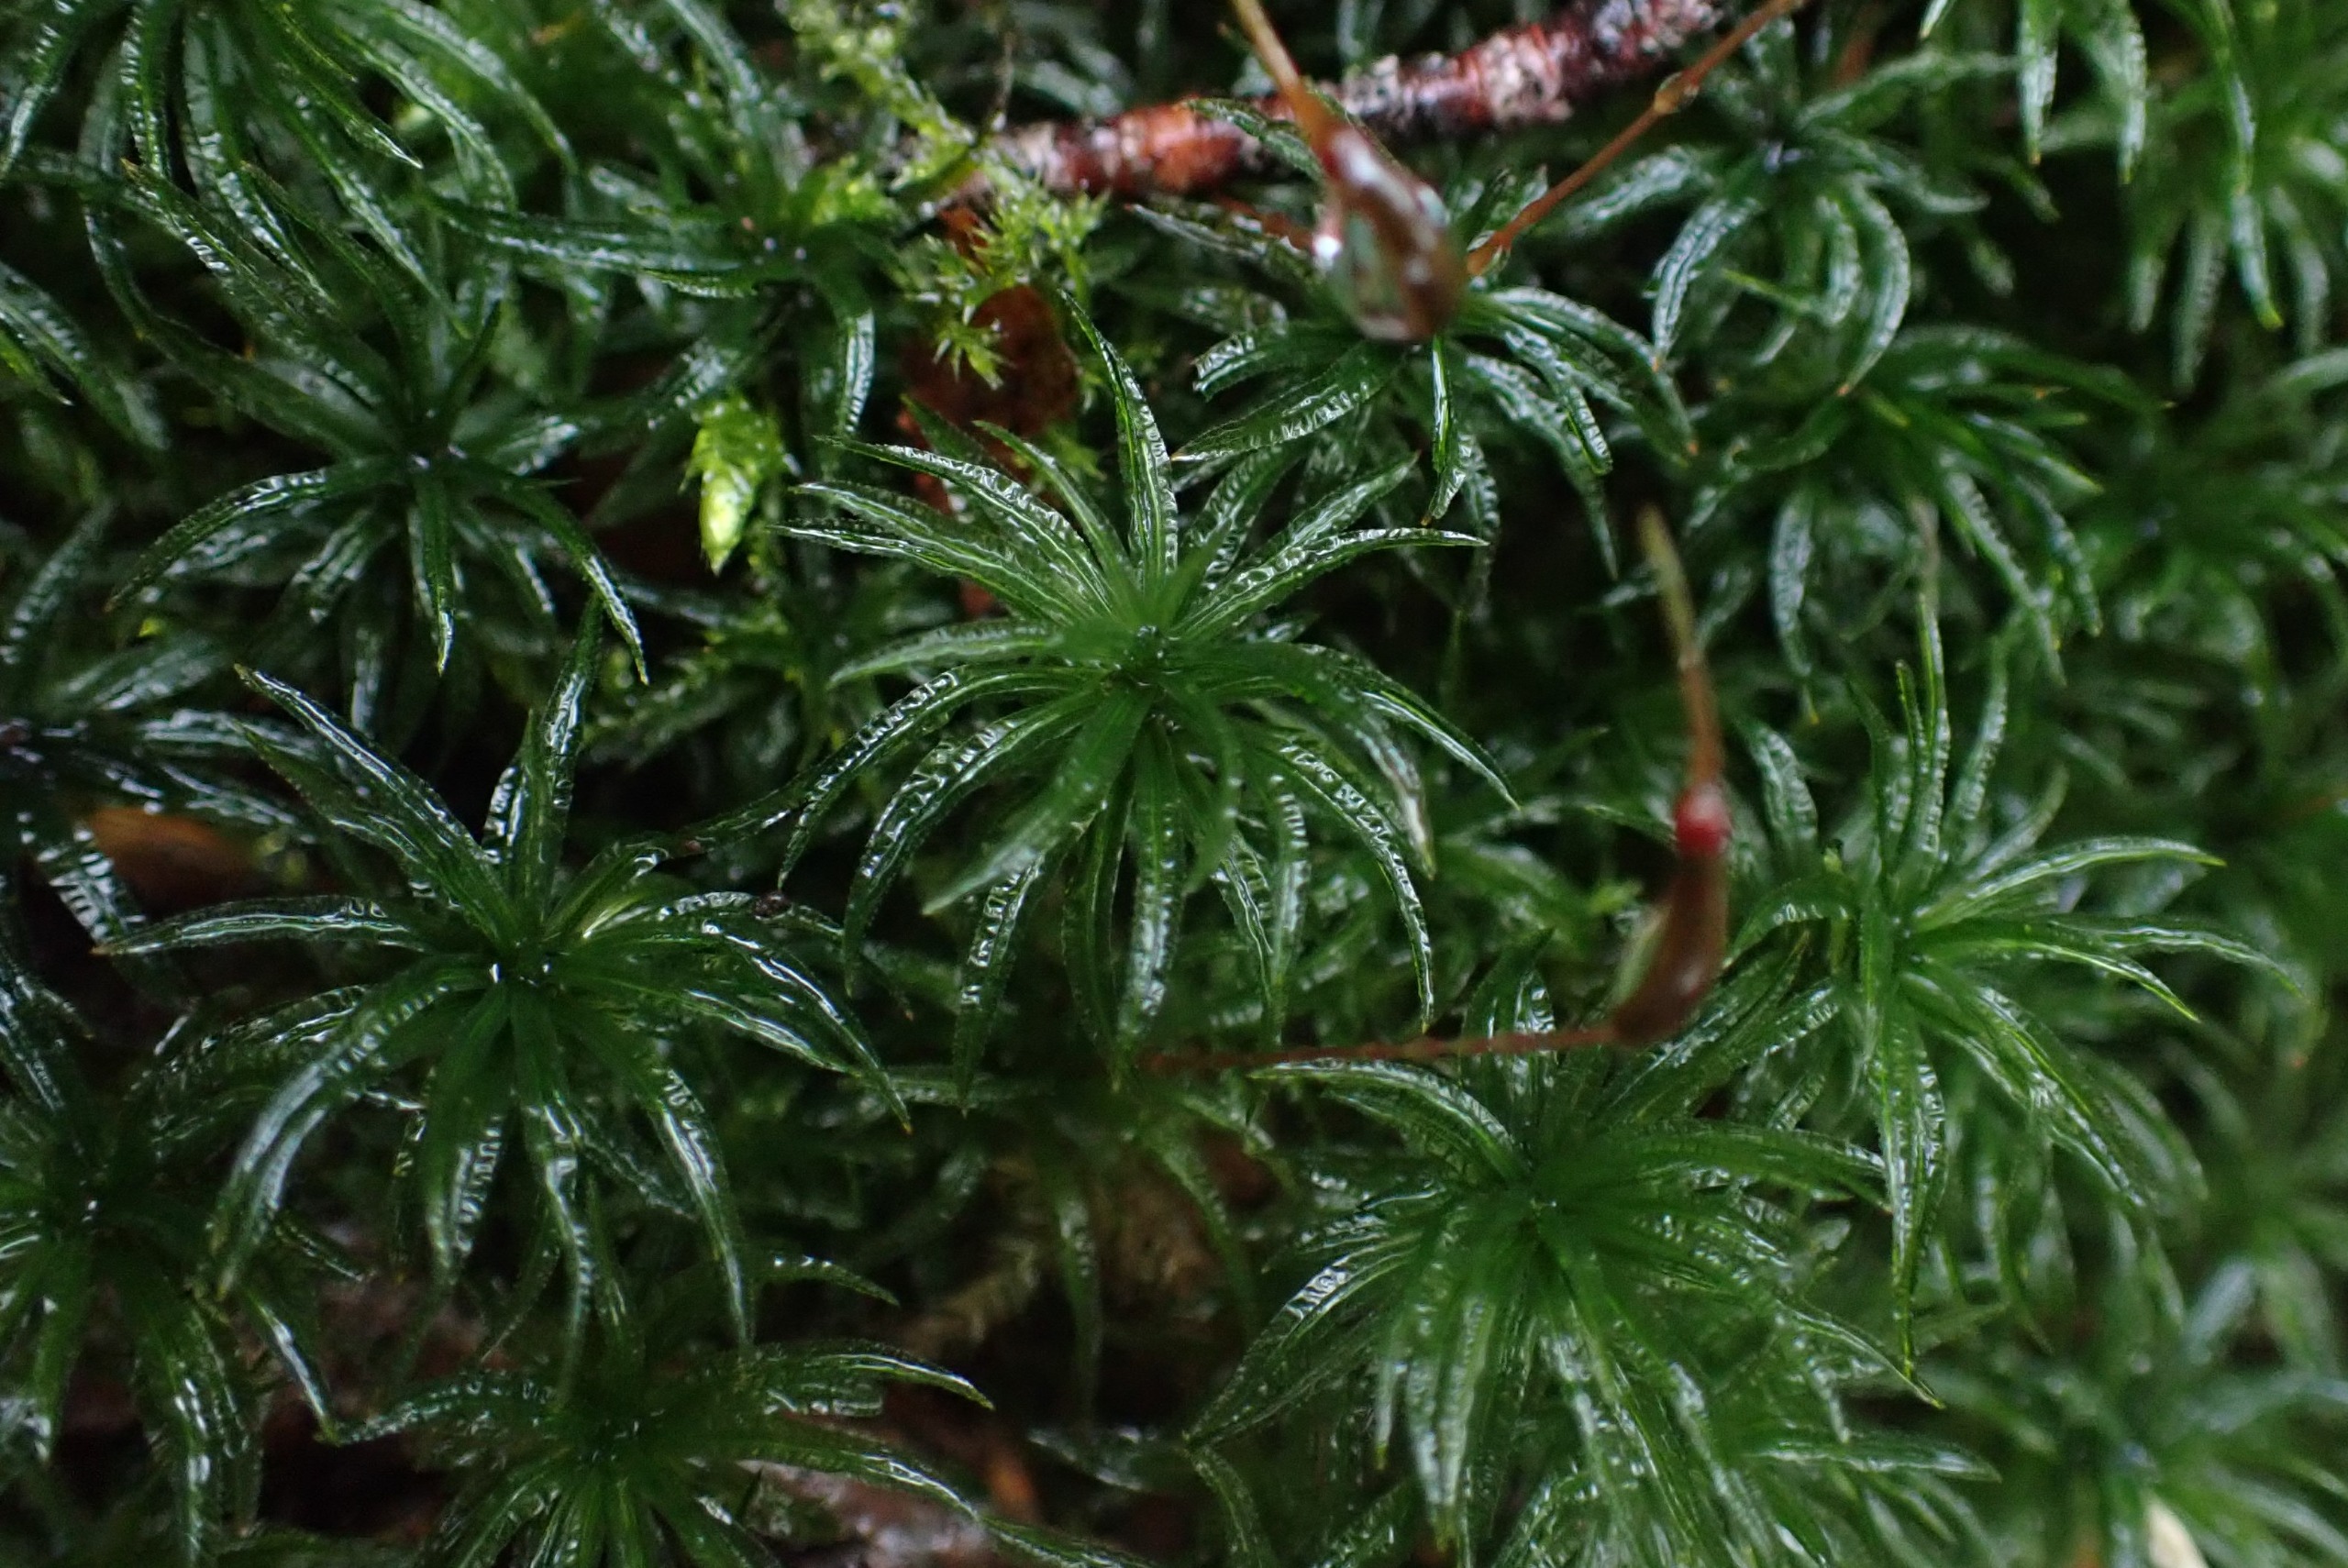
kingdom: Plantae
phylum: Bryophyta
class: Polytrichopsida
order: Polytrichales
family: Polytrichaceae
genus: Atrichum
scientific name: Atrichum undulatum
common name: Bølget katrinemos
